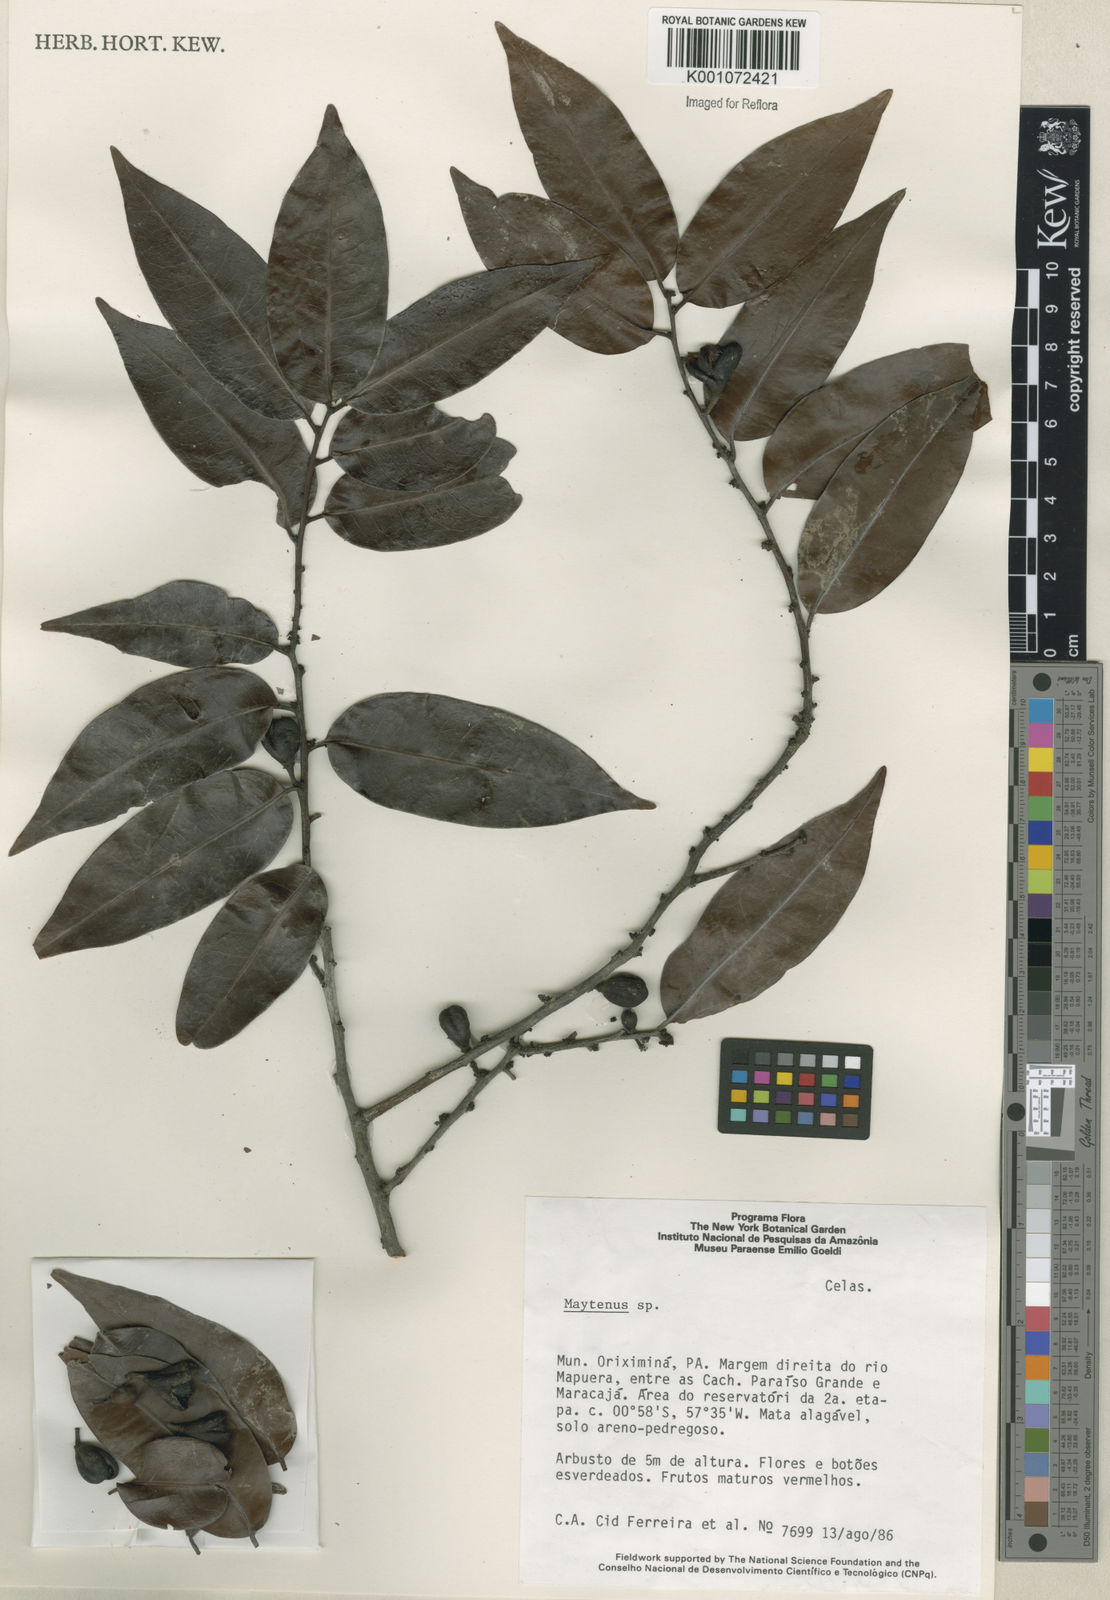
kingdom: Plantae
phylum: Tracheophyta
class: Magnoliopsida
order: Celastrales
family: Celastraceae
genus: Maytenus
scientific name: Maytenus
